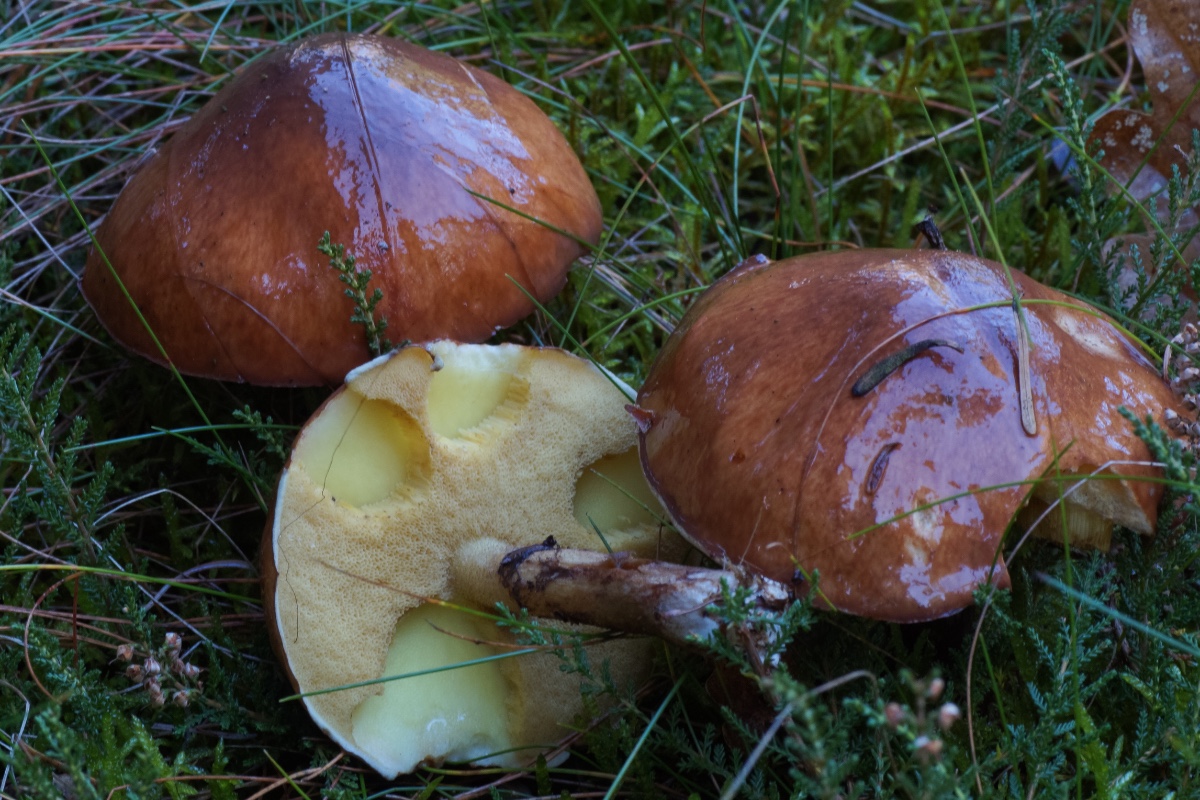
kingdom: Fungi
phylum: Basidiomycota
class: Agaricomycetes
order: Boletales
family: Suillaceae
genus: Suillus
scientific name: Suillus luteus
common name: brungul slimrørhat
